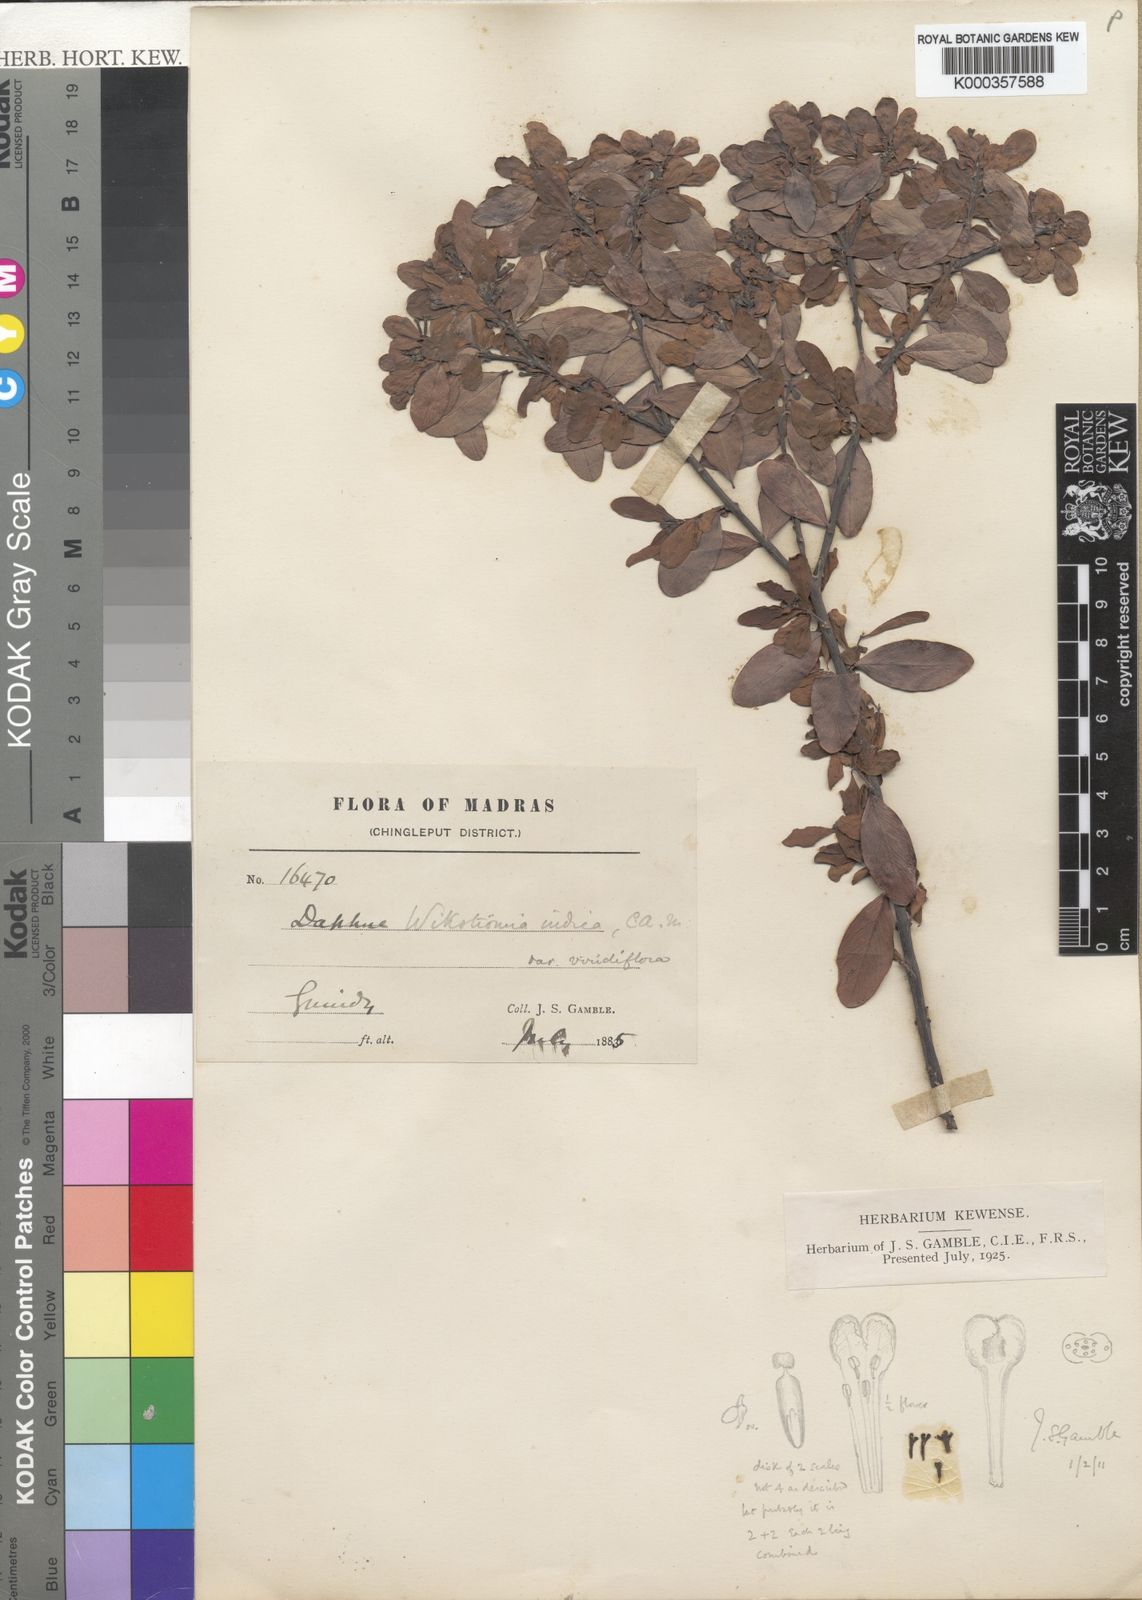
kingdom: Plantae
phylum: Tracheophyta
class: Magnoliopsida
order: Malvales
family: Thymelaeaceae
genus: Wikstroemia
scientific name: Wikstroemia indica
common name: Tiebush
